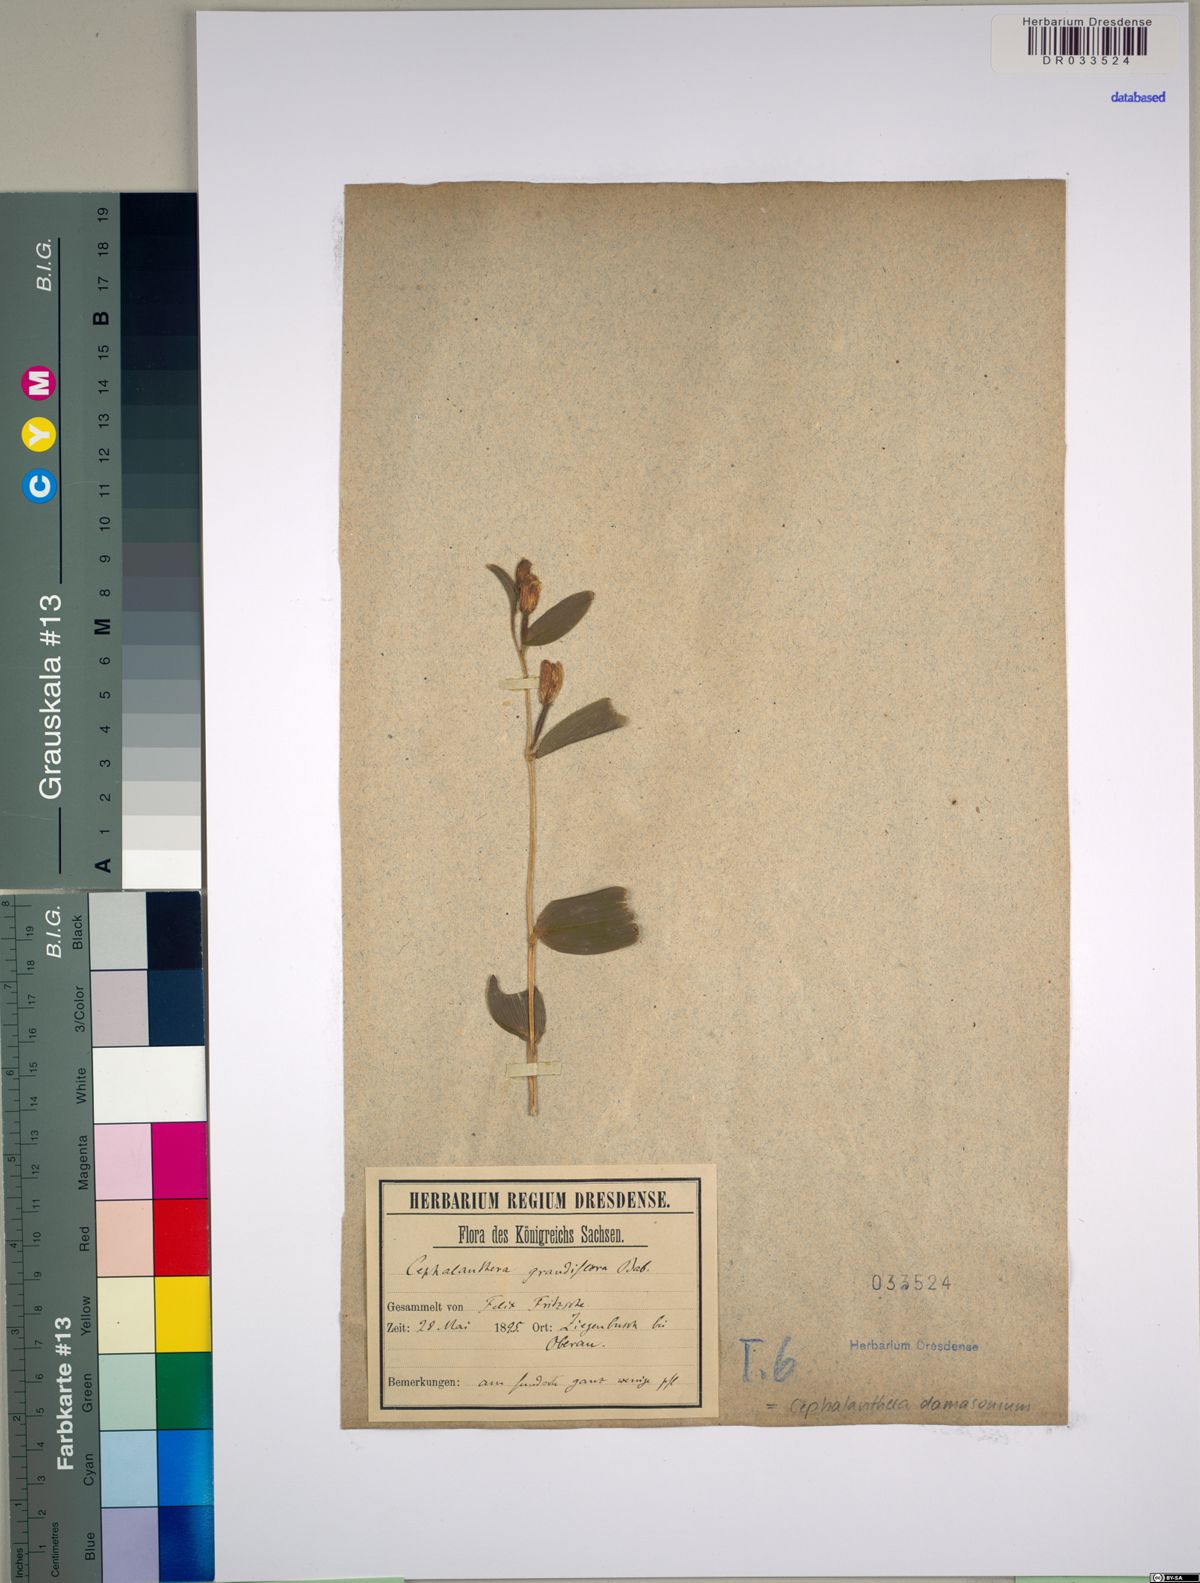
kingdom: Plantae
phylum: Tracheophyta
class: Liliopsida
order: Asparagales
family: Orchidaceae
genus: Cephalanthera
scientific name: Cephalanthera damasonium
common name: White helleborine
